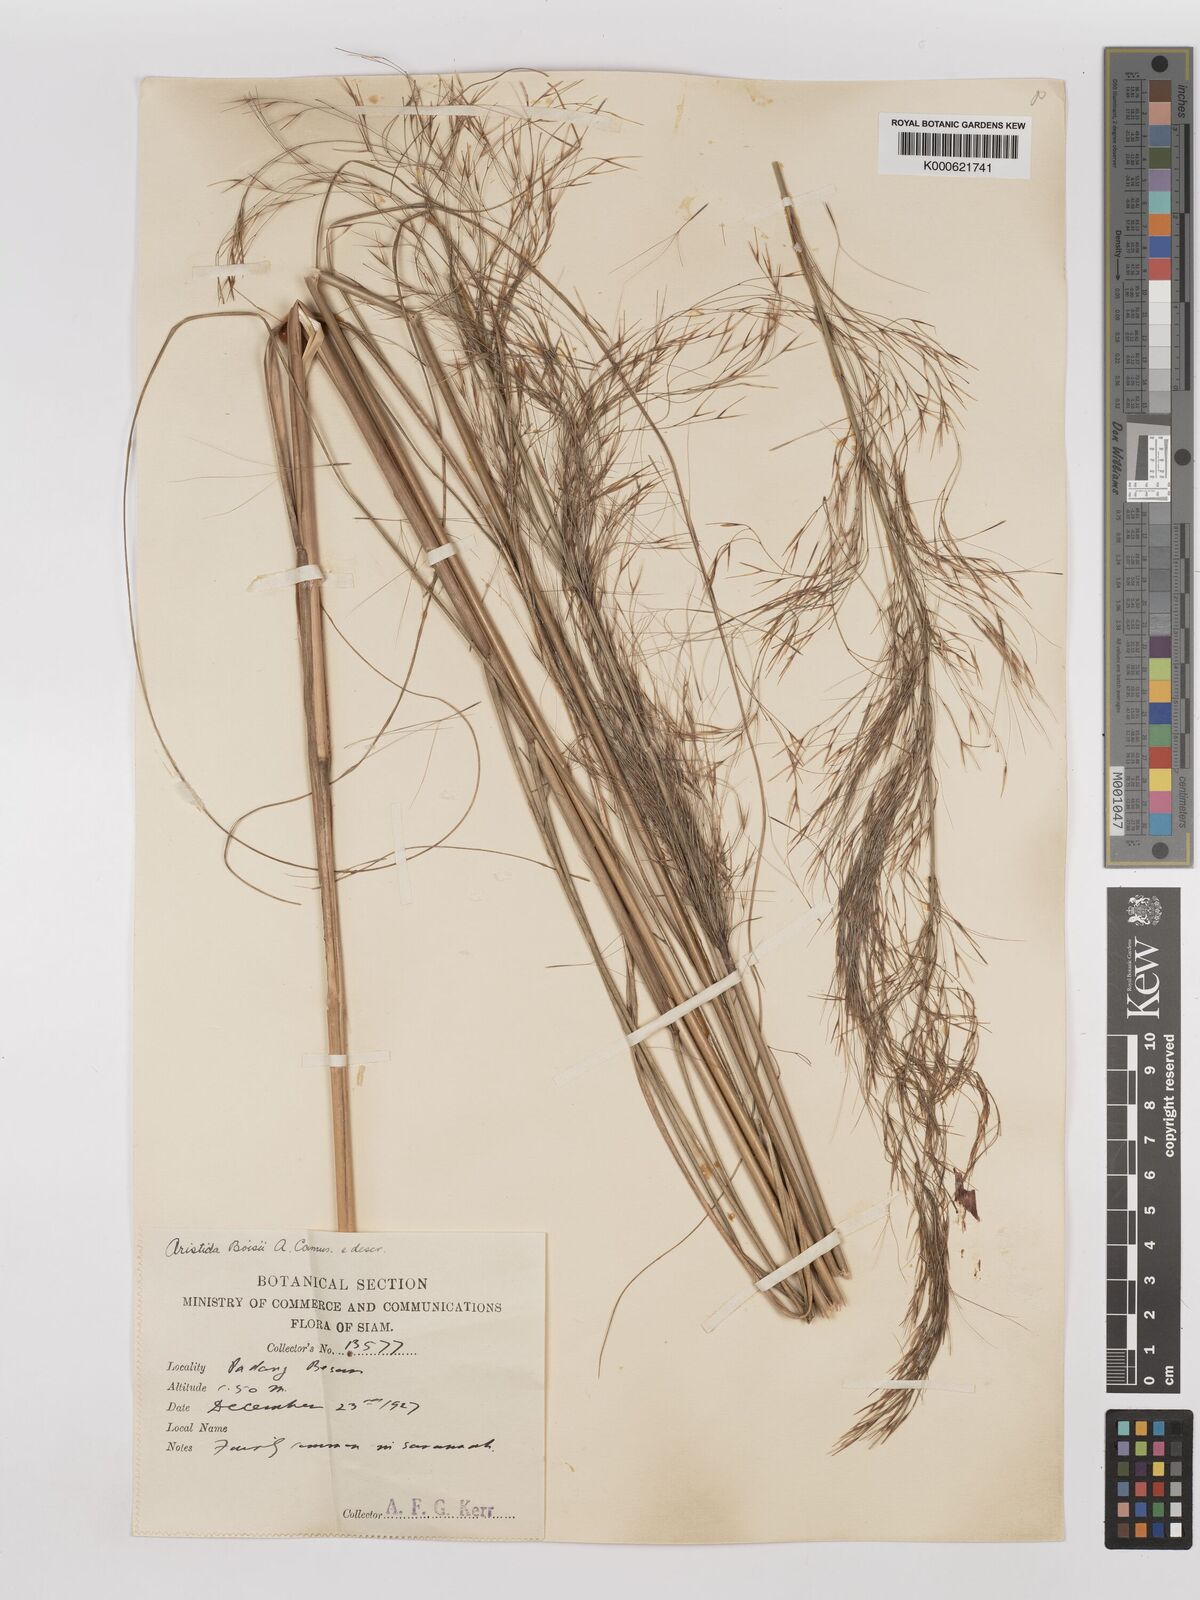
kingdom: Plantae
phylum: Tracheophyta
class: Liliopsida
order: Poales
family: Poaceae
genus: Aristida
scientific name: Aristida culionensis
